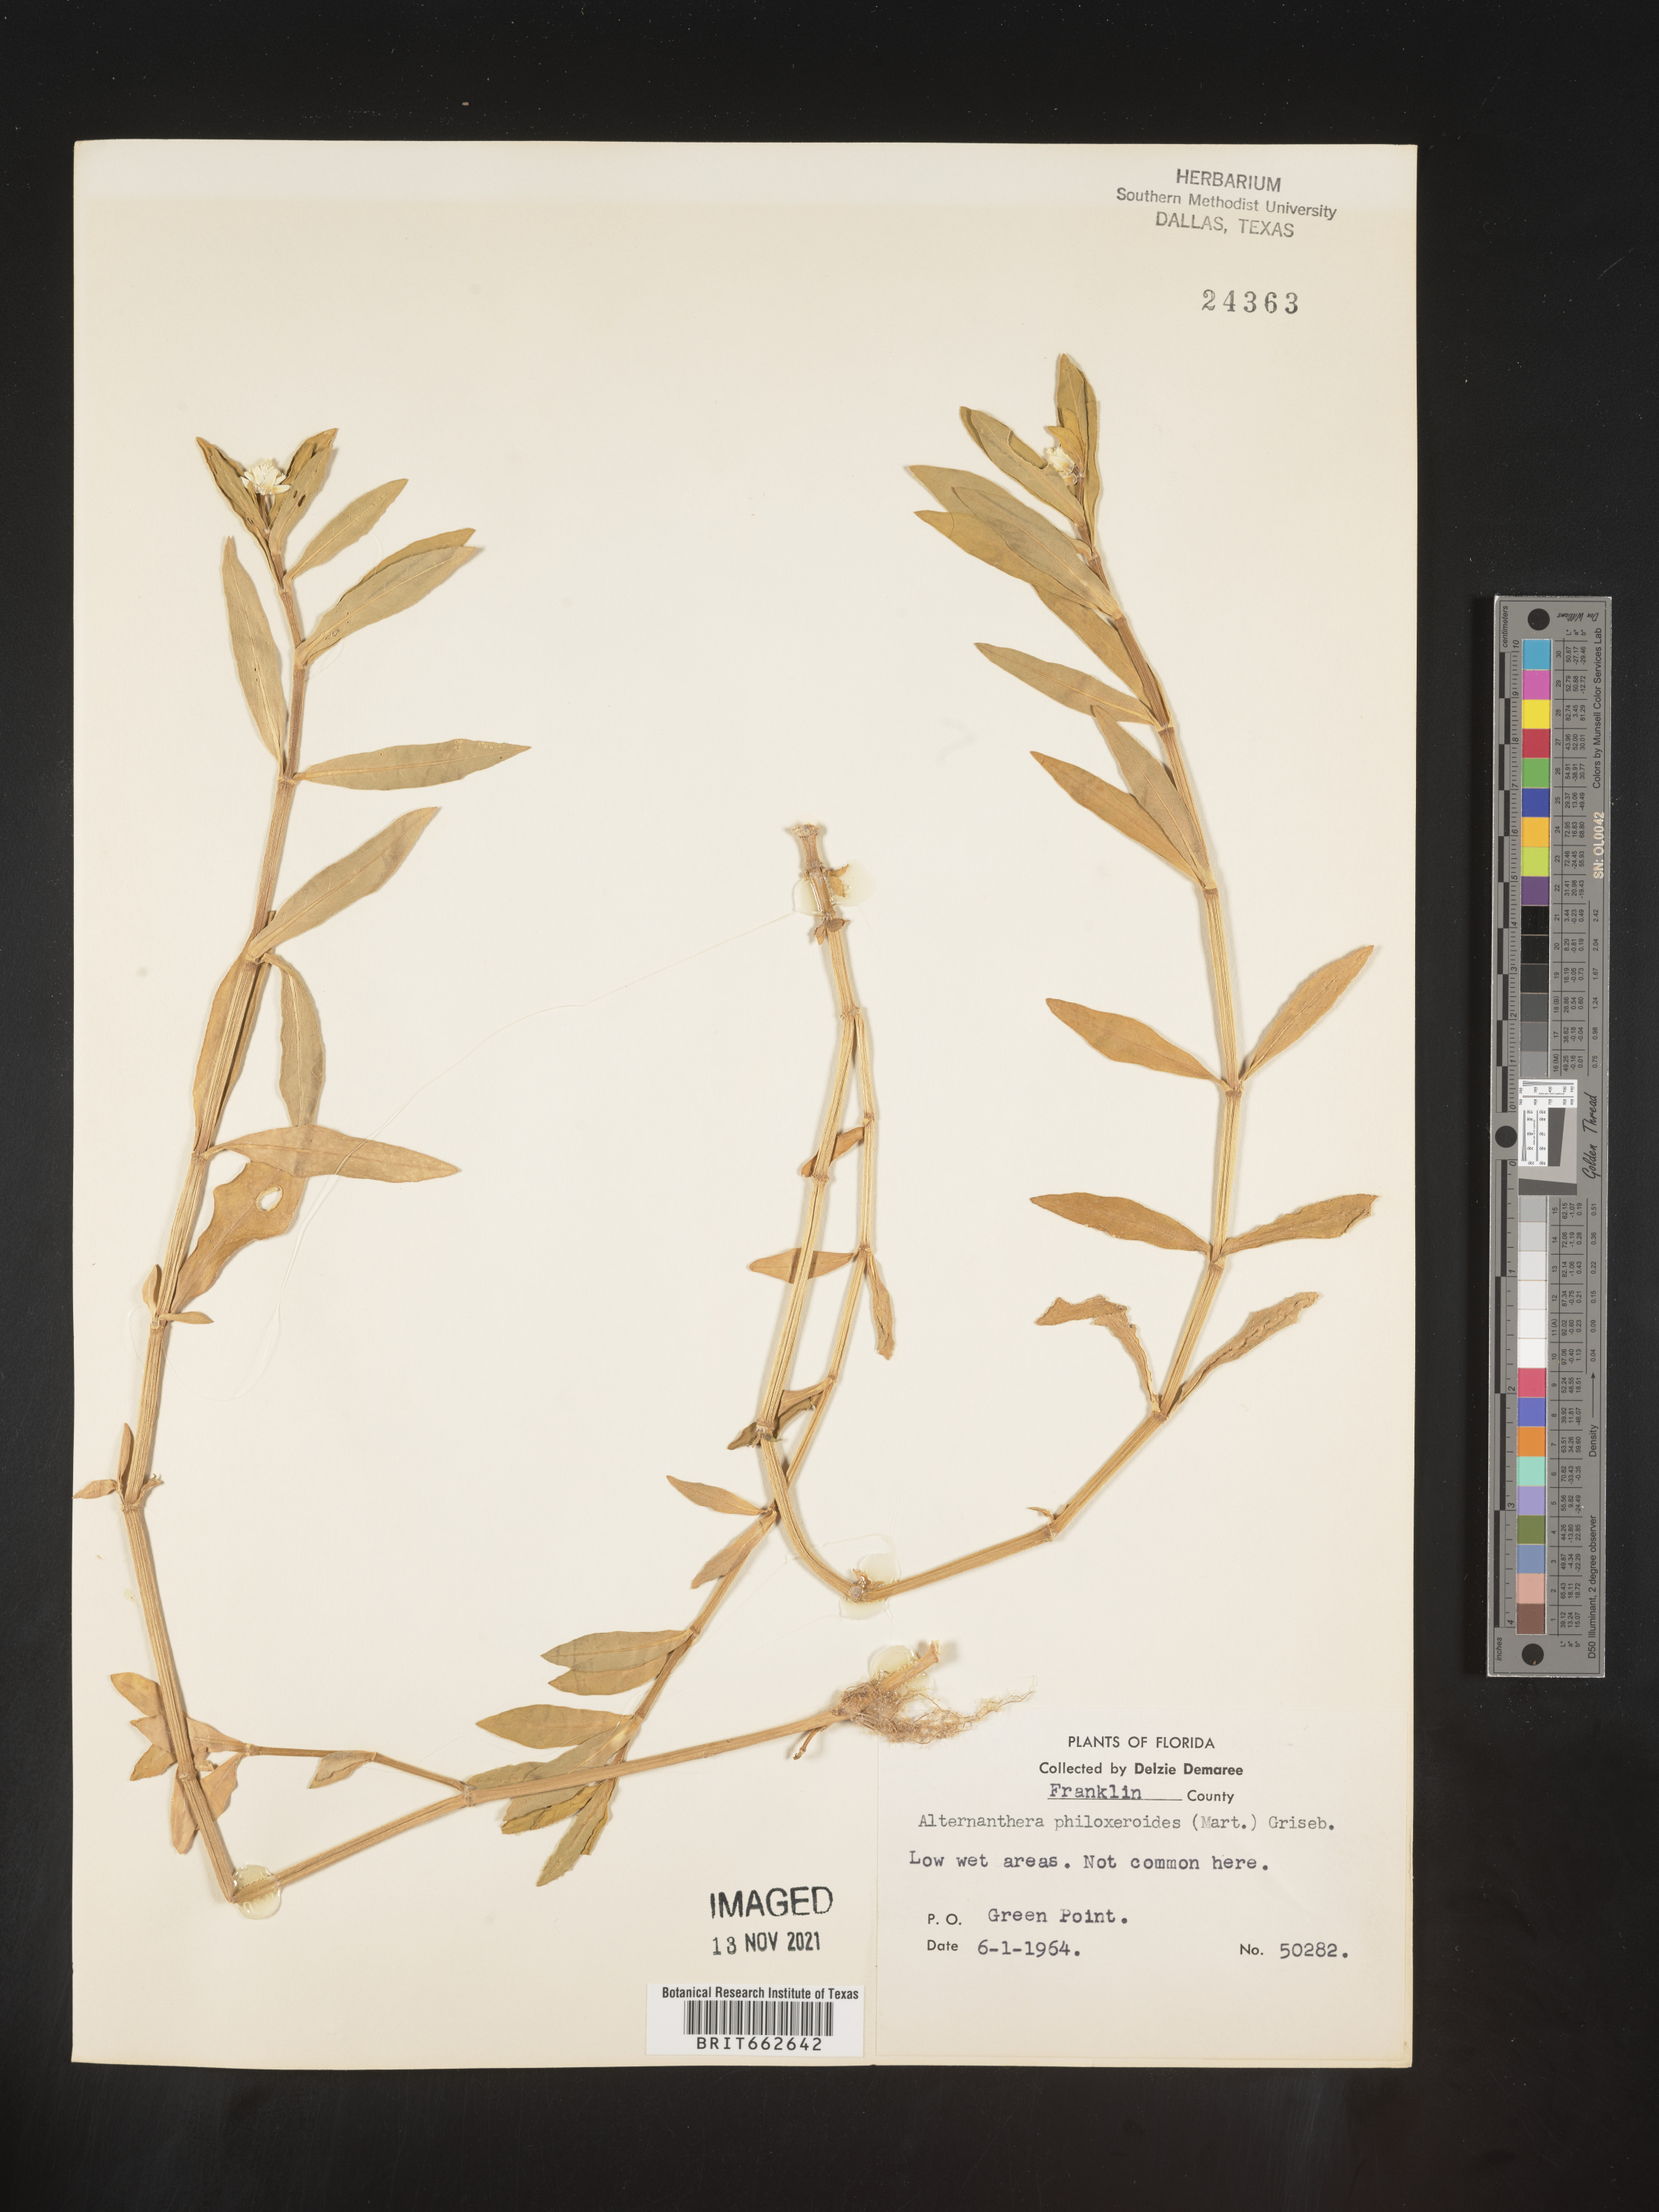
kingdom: Plantae
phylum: Tracheophyta
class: Magnoliopsida
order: Caryophyllales
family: Amaranthaceae
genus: Alternanthera
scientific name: Alternanthera philoxeroides
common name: Alligatorweed
